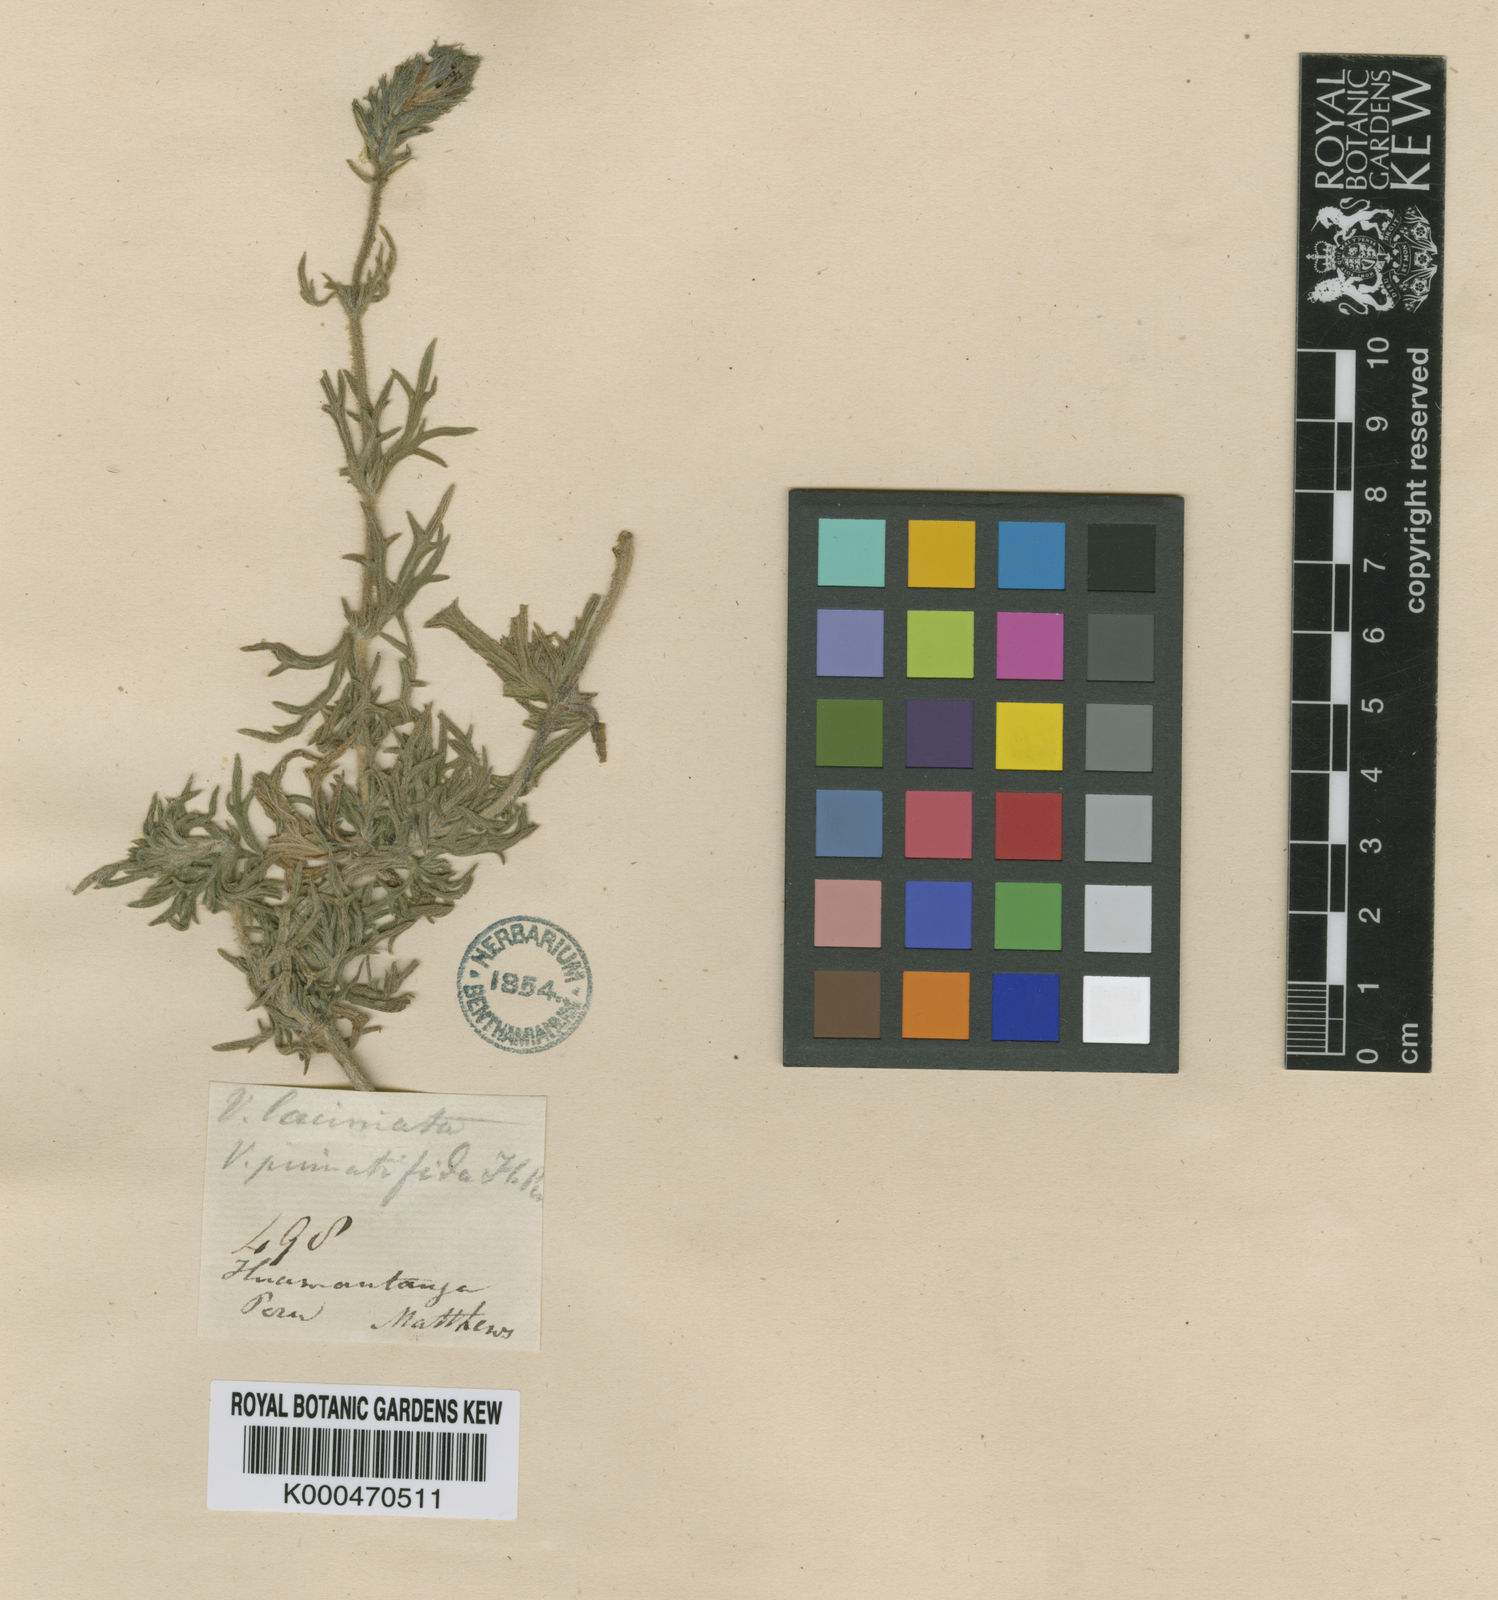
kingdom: Plantae
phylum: Tracheophyta
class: Magnoliopsida
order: Lamiales
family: Verbenaceae
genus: Junellia
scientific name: Junellia fasciculata
